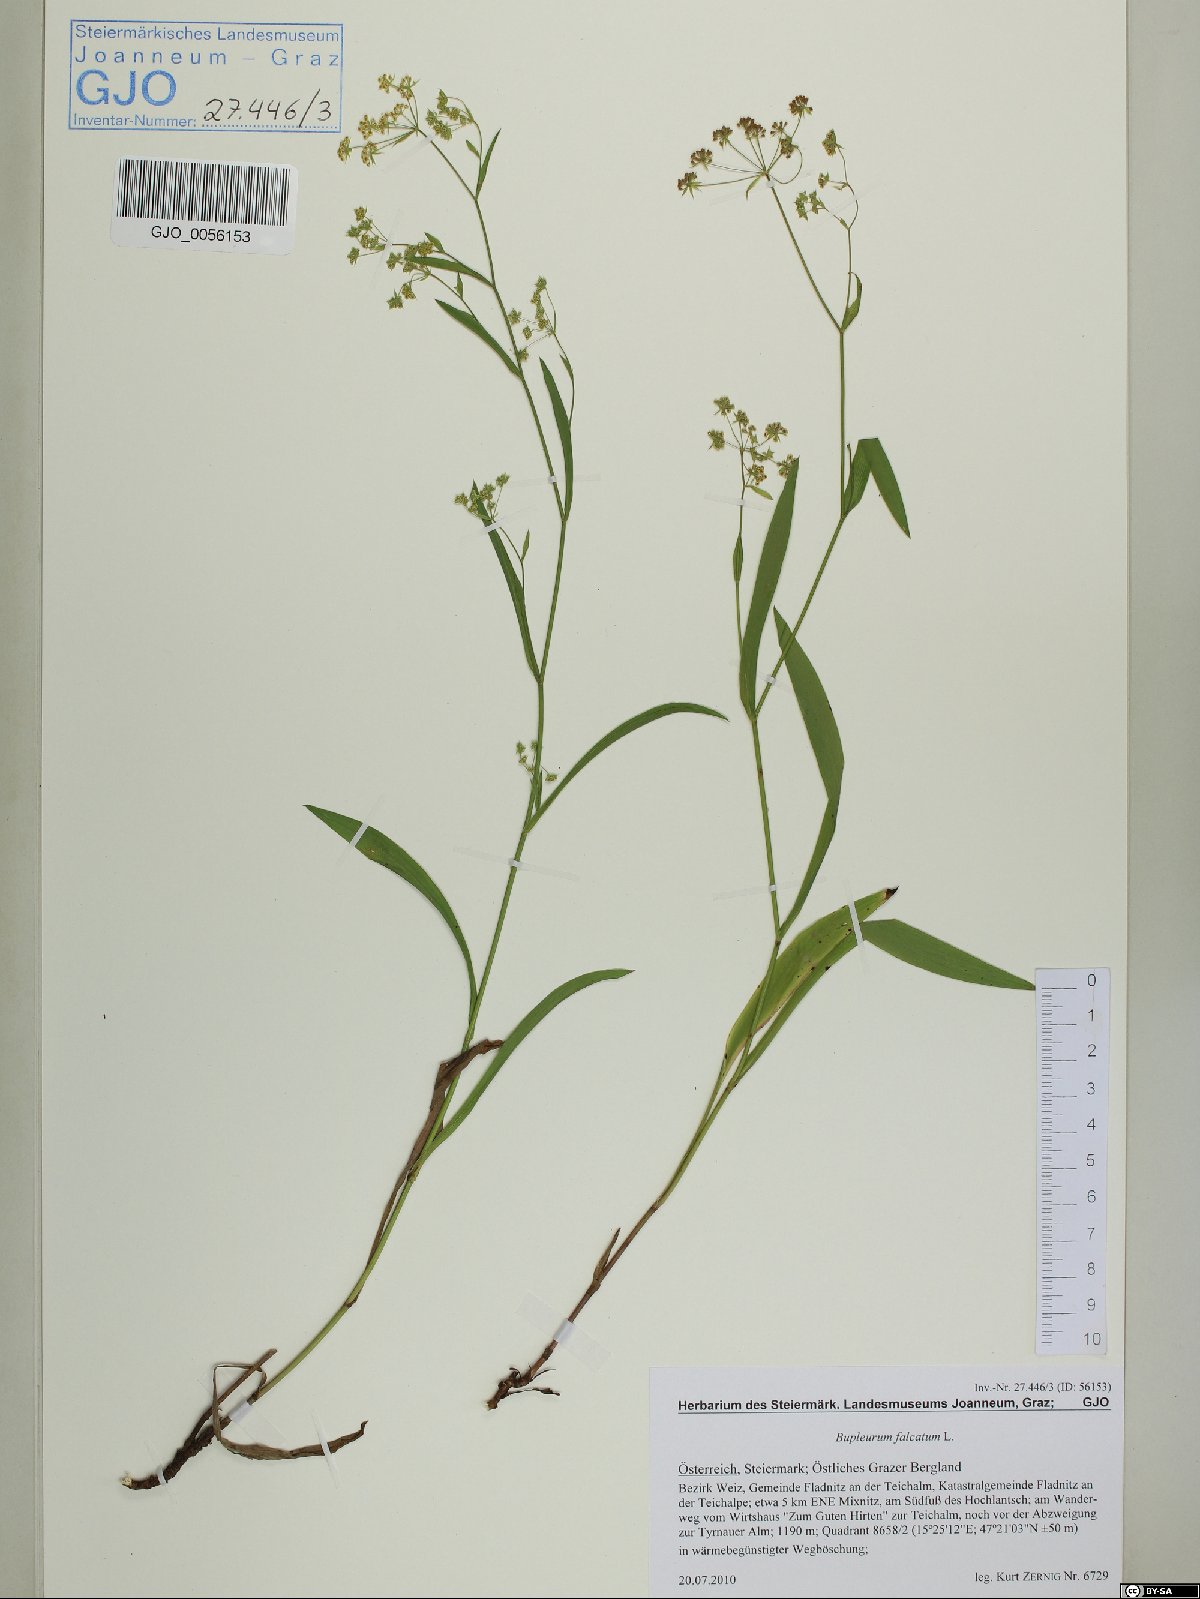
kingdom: Plantae
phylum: Tracheophyta
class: Magnoliopsida
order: Apiales
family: Apiaceae
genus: Bupleurum
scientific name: Bupleurum falcatum
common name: Sickle-leaved hare's-ear
